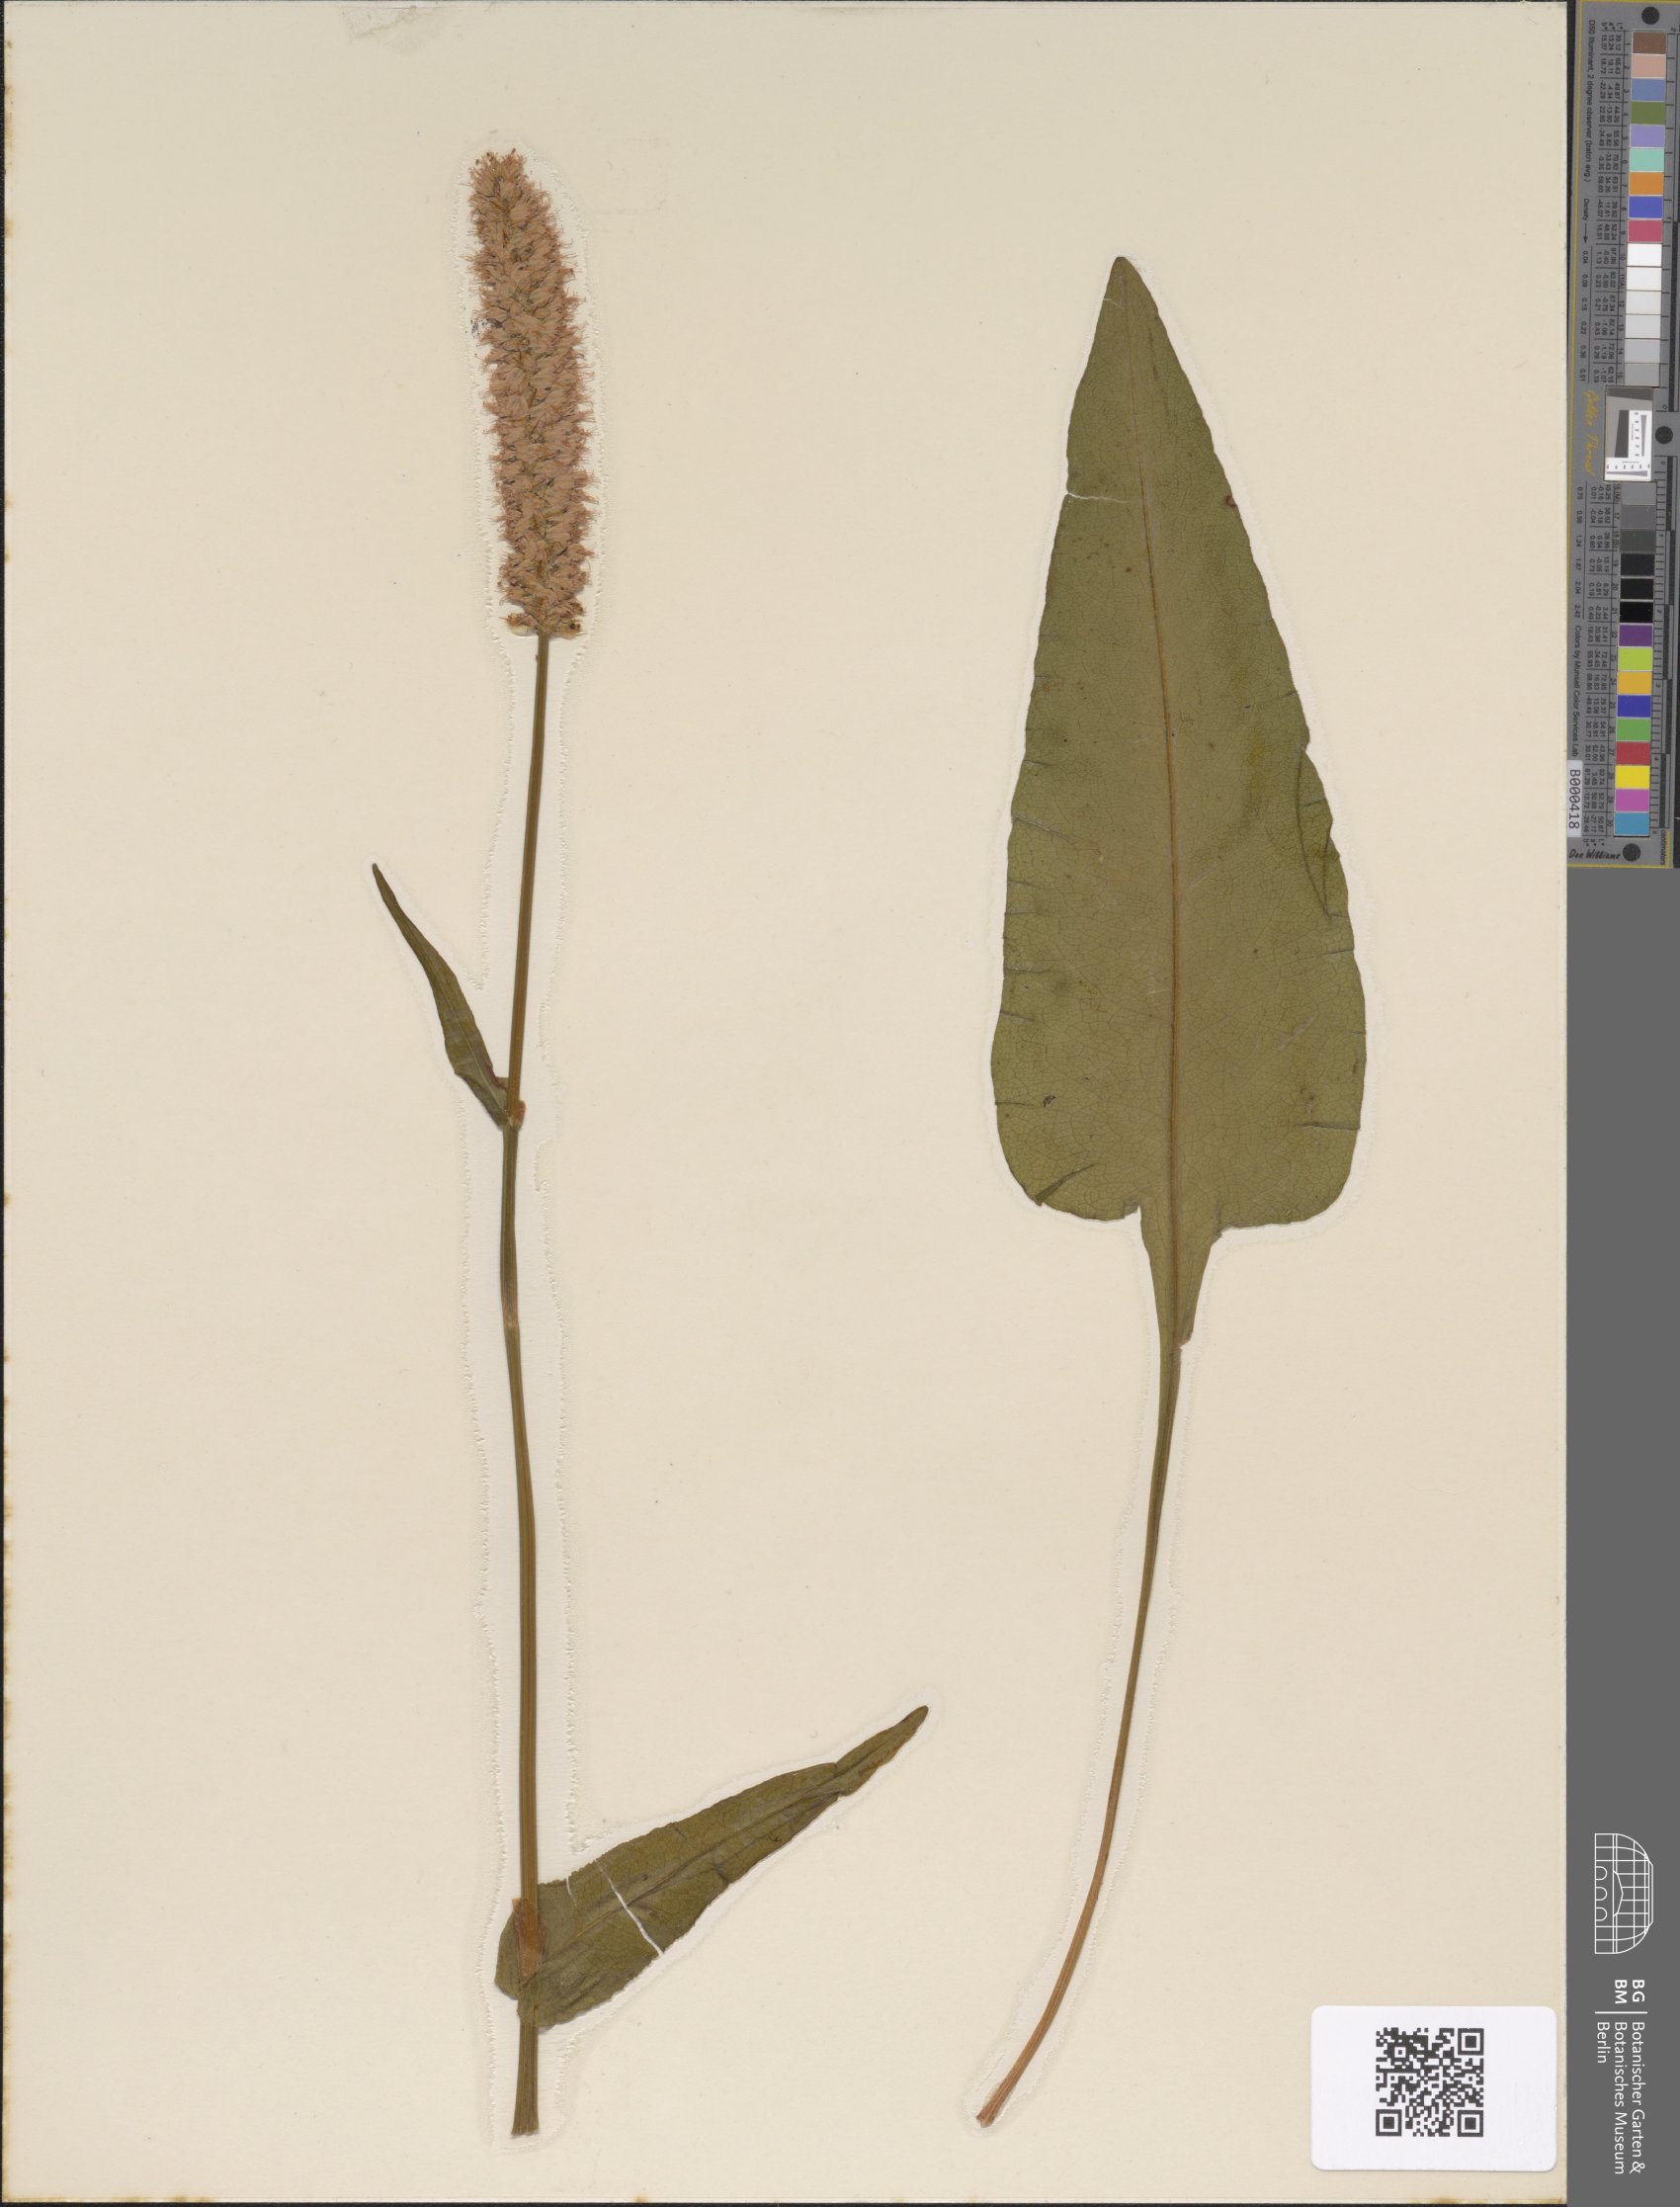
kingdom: Plantae
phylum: Tracheophyta
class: Magnoliopsida
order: Caryophyllales
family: Polygonaceae
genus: Bistorta
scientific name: Bistorta officinalis
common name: Common bistort
